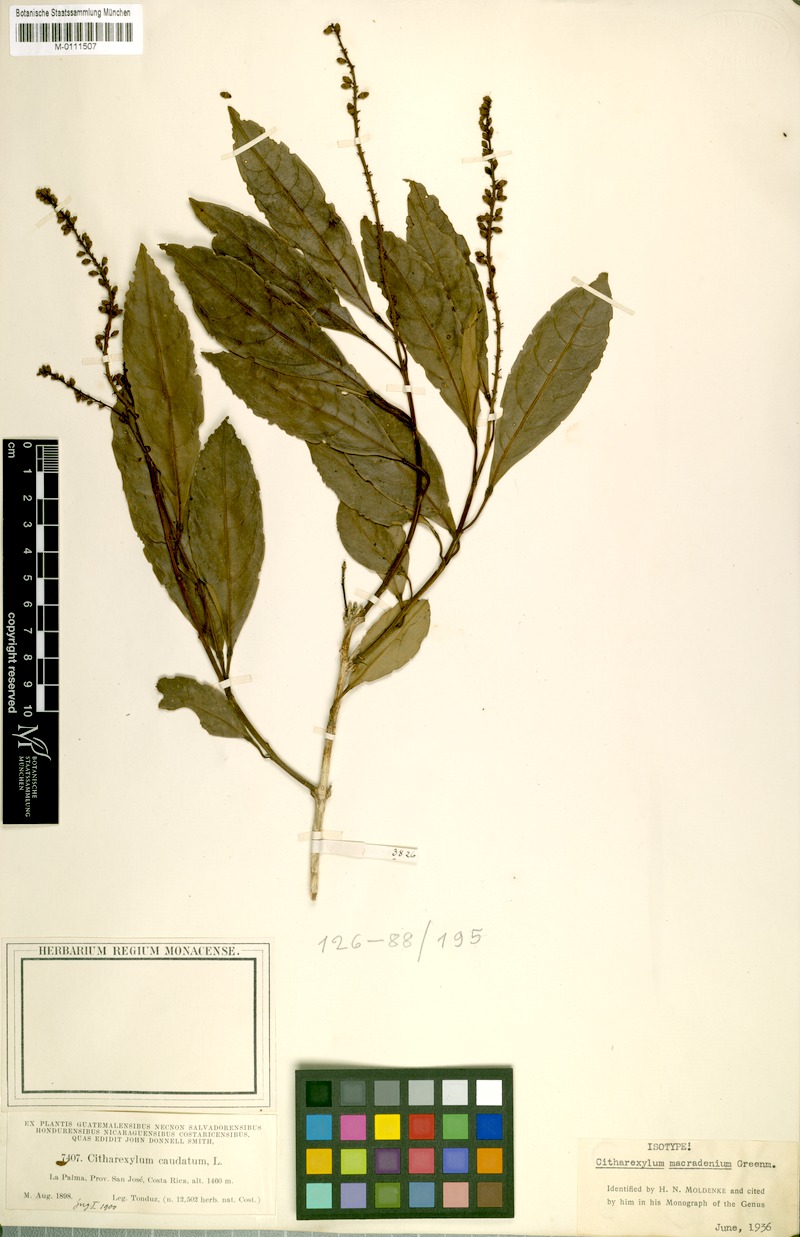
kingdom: Plantae
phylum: Tracheophyta
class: Magnoliopsida
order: Lamiales
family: Verbenaceae
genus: Citharexylum
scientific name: Citharexylum macradenium
